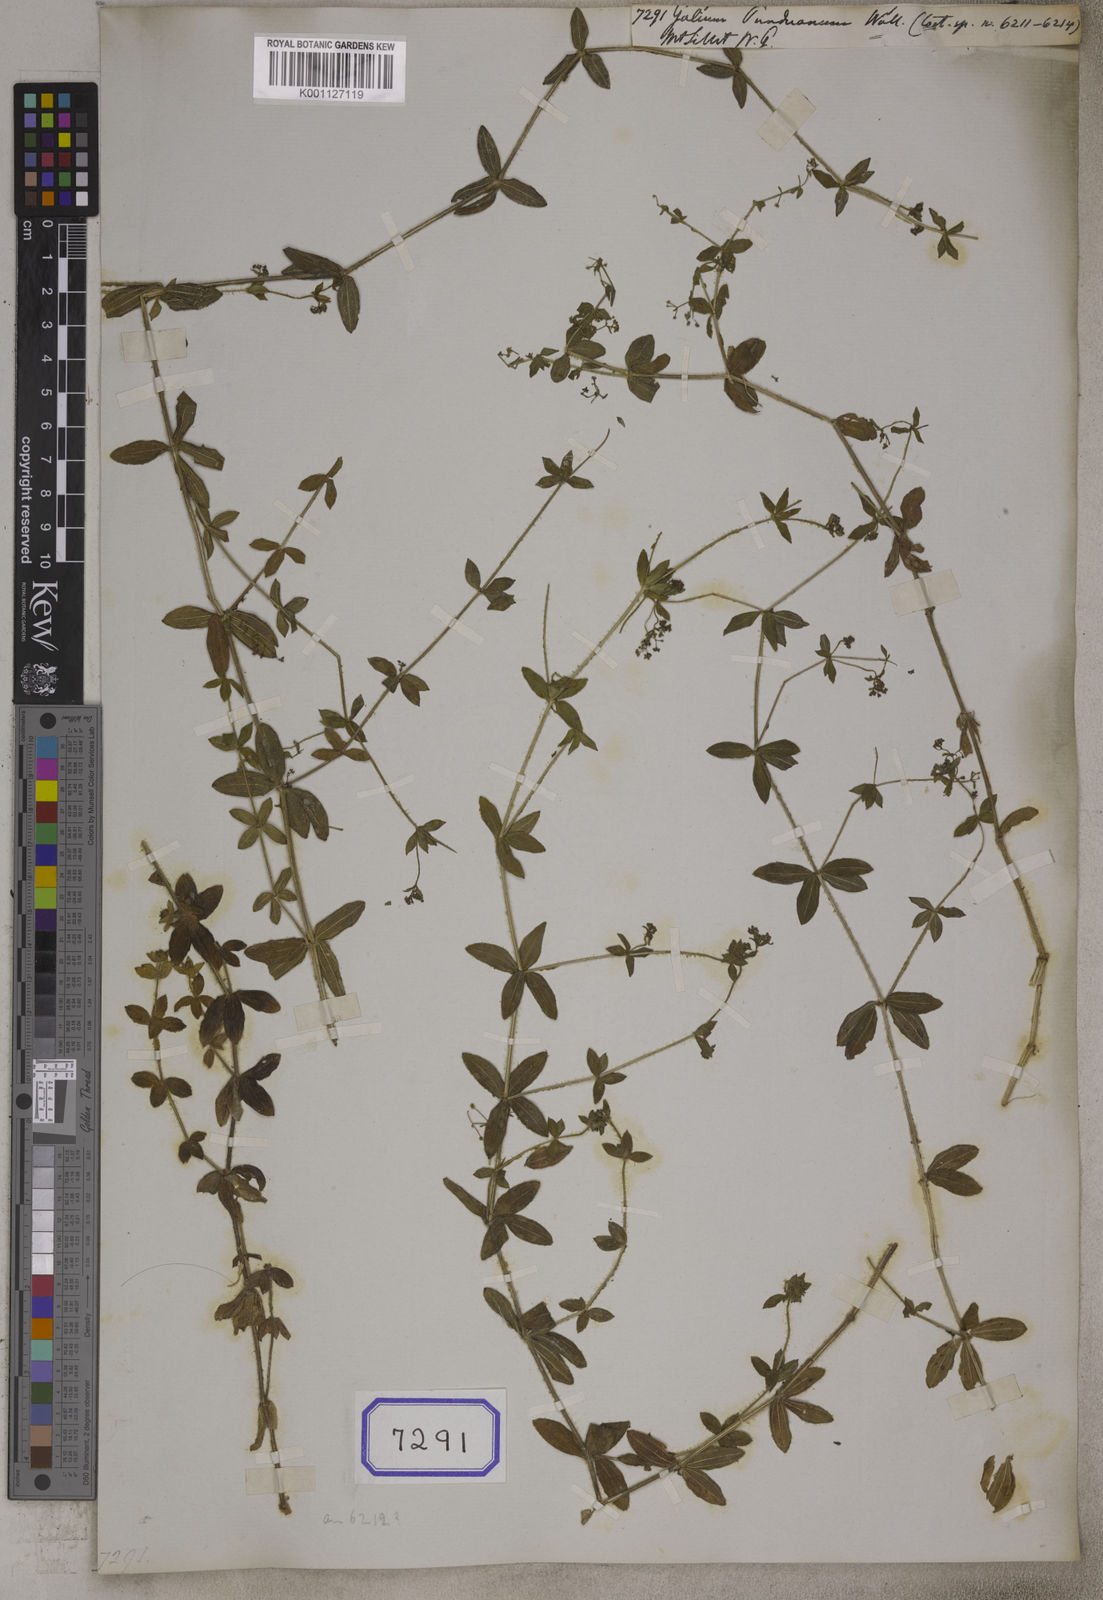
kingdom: Plantae
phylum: Tracheophyta
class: Magnoliopsida
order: Gentianales
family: Rubiaceae
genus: Galium
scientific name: Galium
